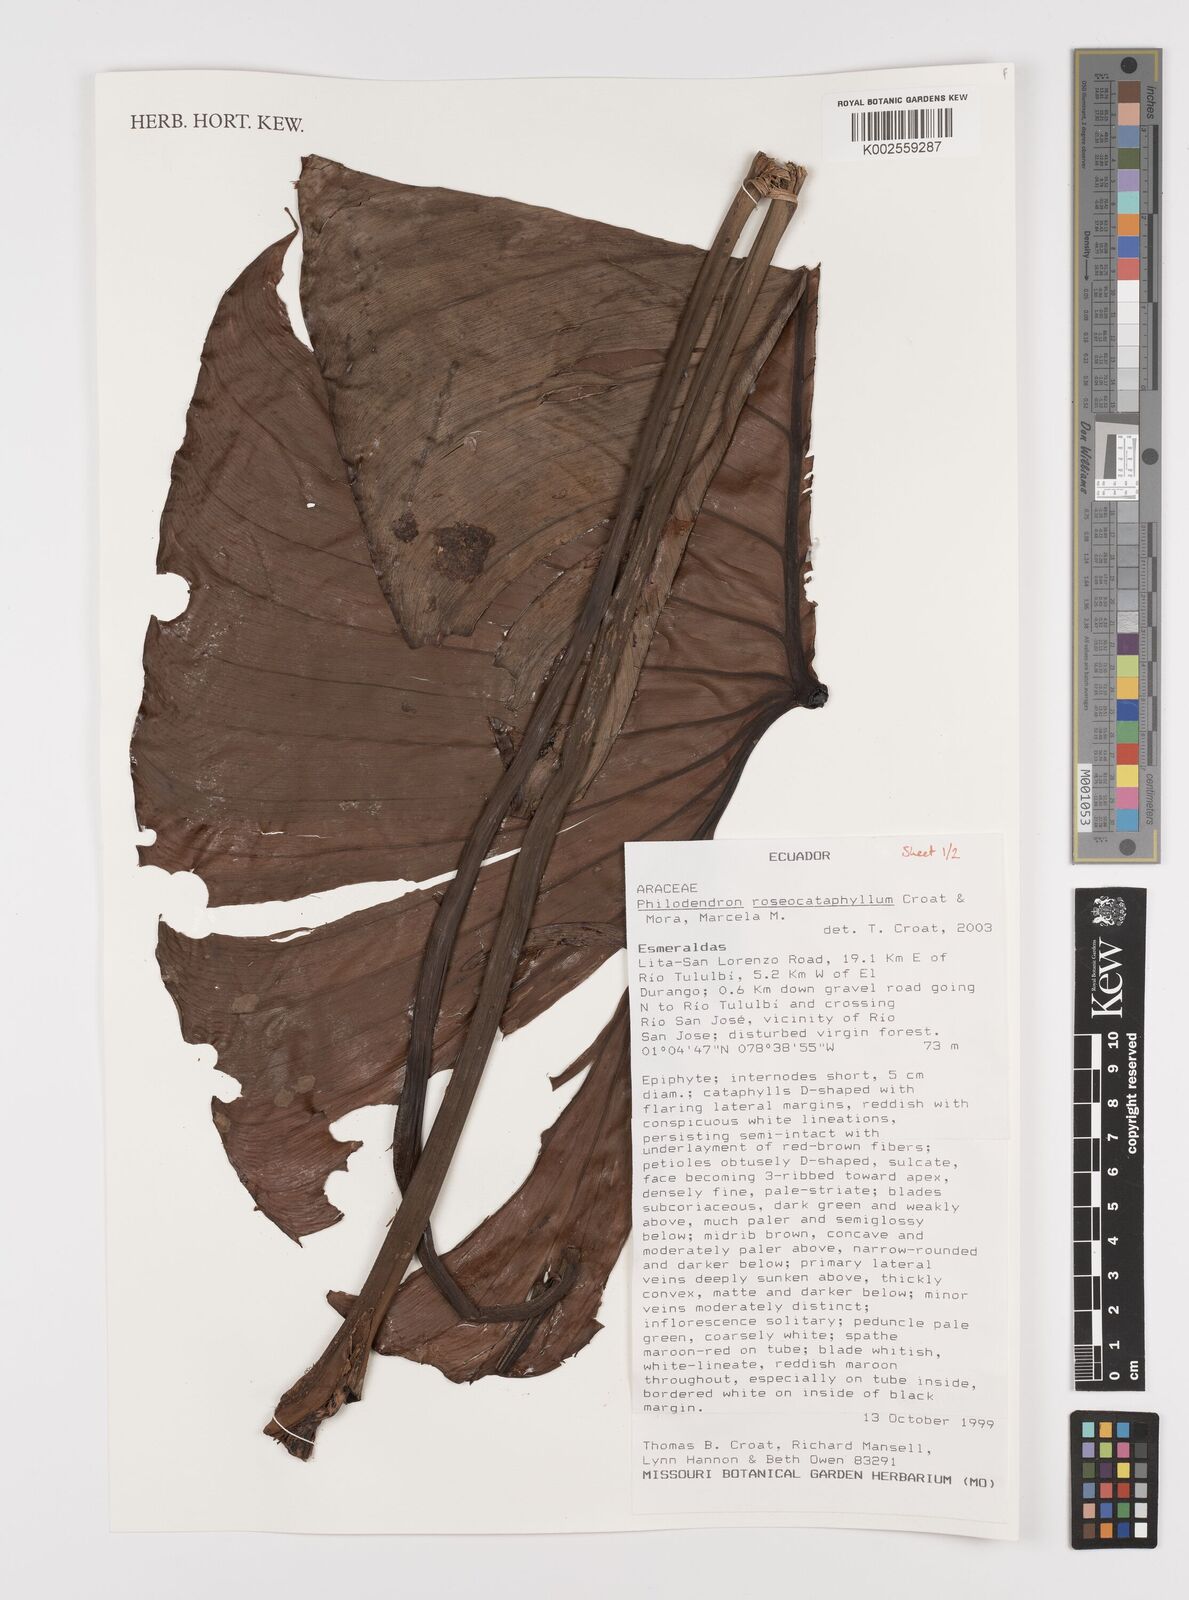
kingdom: Plantae
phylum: Tracheophyta
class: Liliopsida
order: Alismatales
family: Araceae
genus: Philodendron
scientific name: Philodendron roseocataphyllum
